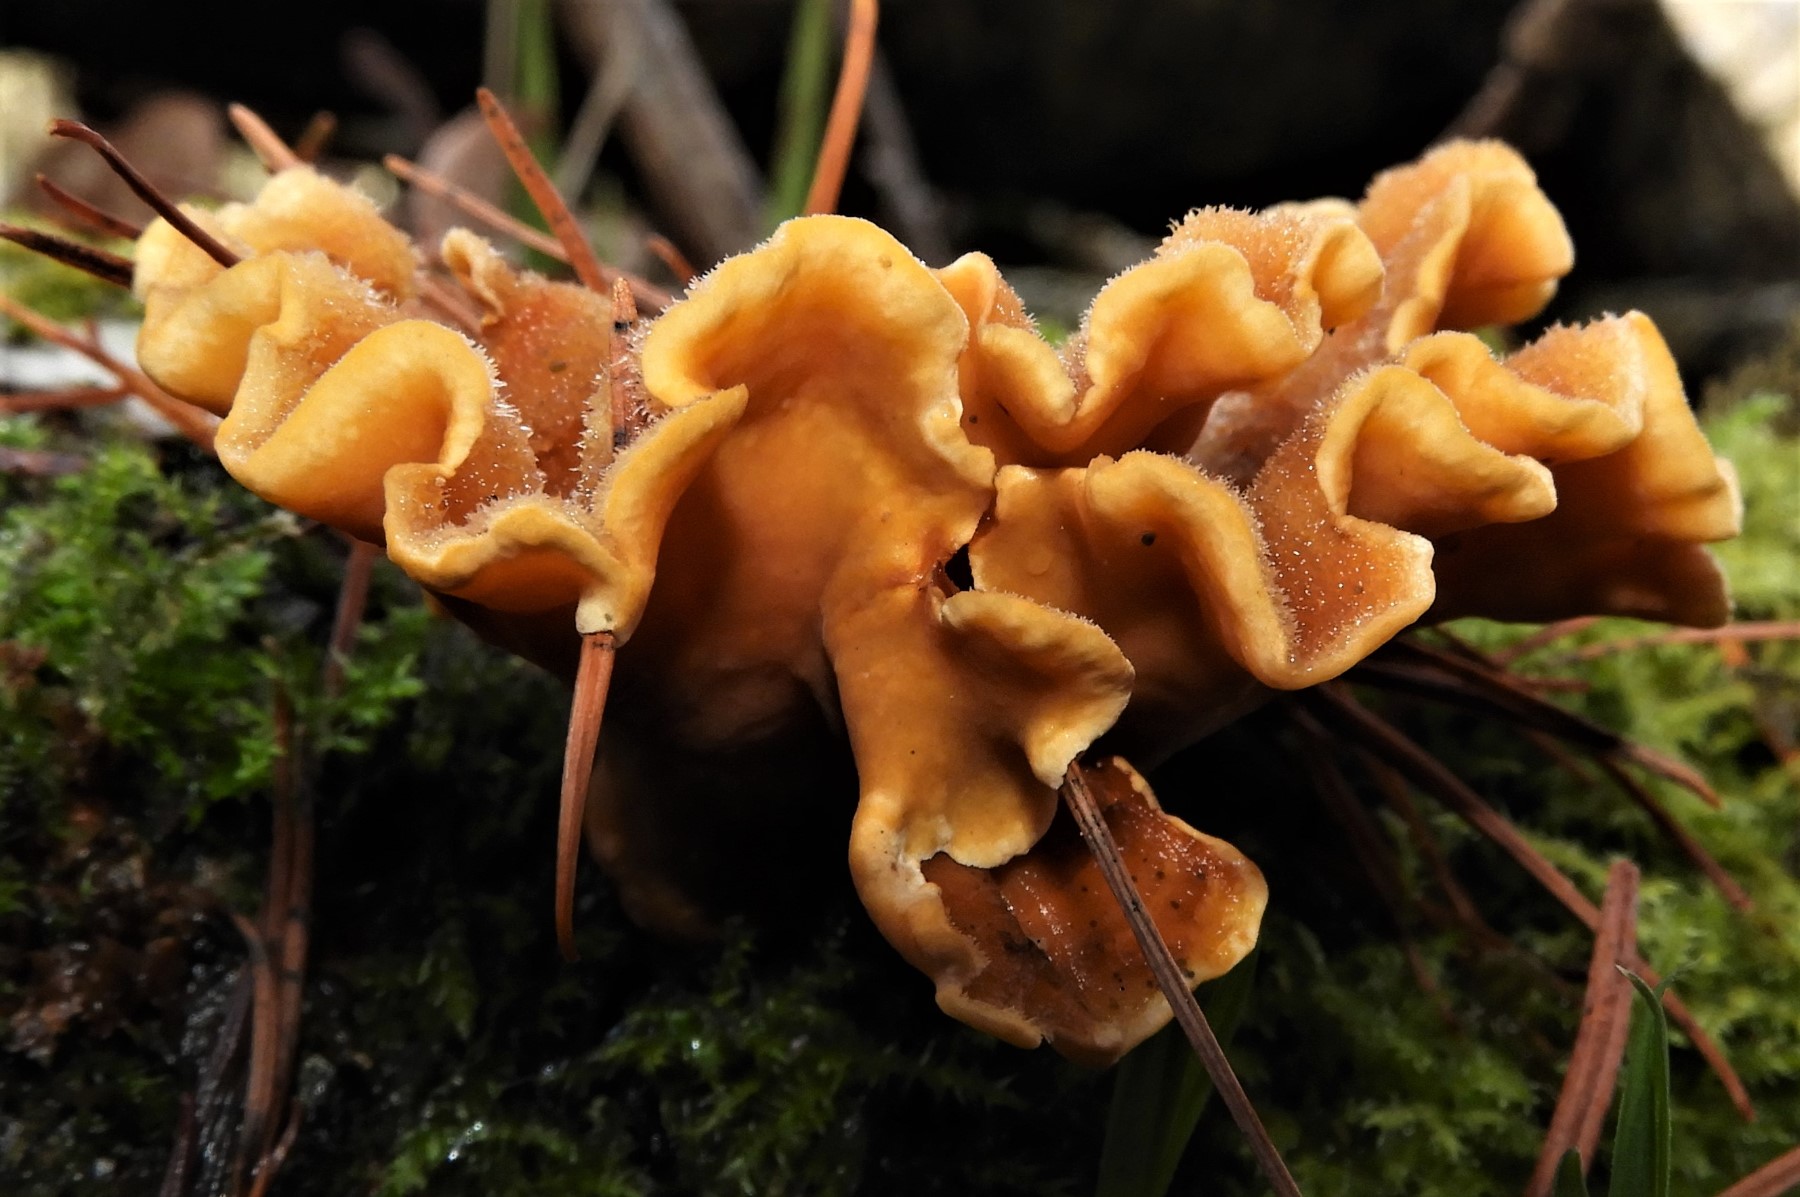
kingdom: Fungi
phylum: Basidiomycota
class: Agaricomycetes
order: Russulales
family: Stereaceae
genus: Stereum
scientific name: Stereum hirsutum
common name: håret lædersvamp
